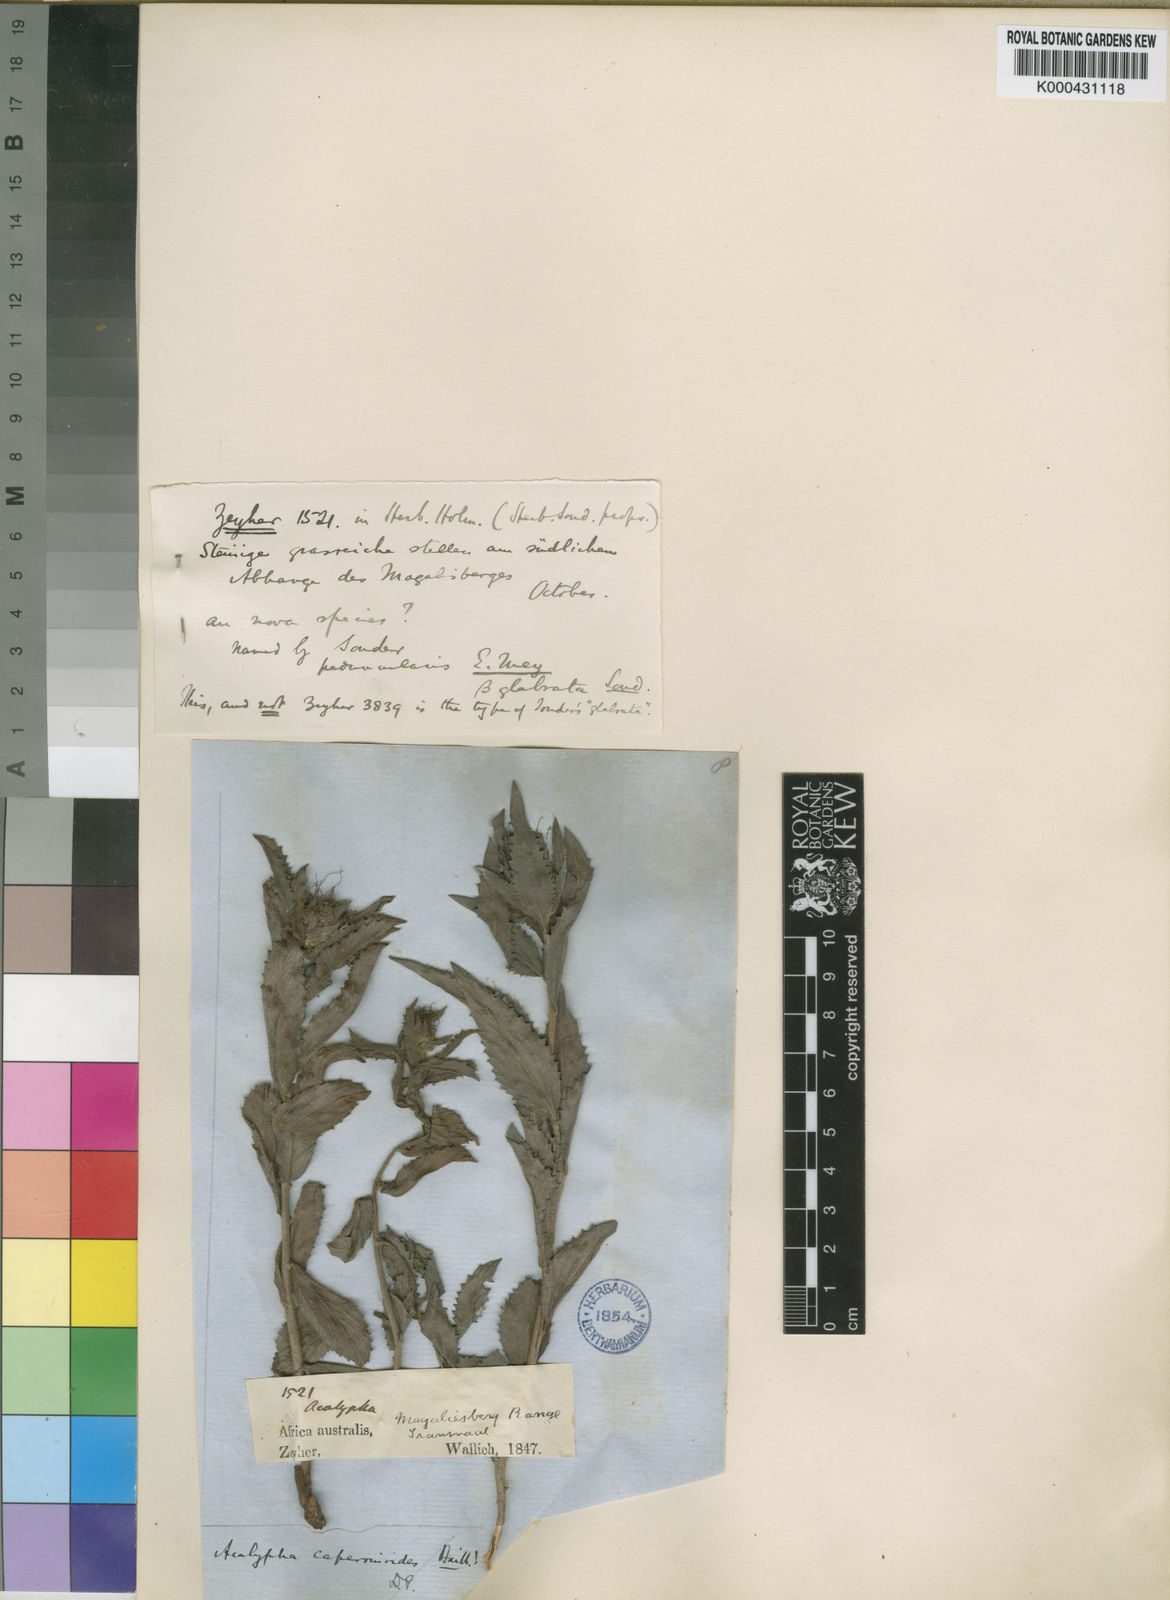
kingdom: Plantae
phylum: Tracheophyta
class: Magnoliopsida
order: Malpighiales
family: Euphorbiaceae
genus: Acalypha
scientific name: Acalypha caperonioides
